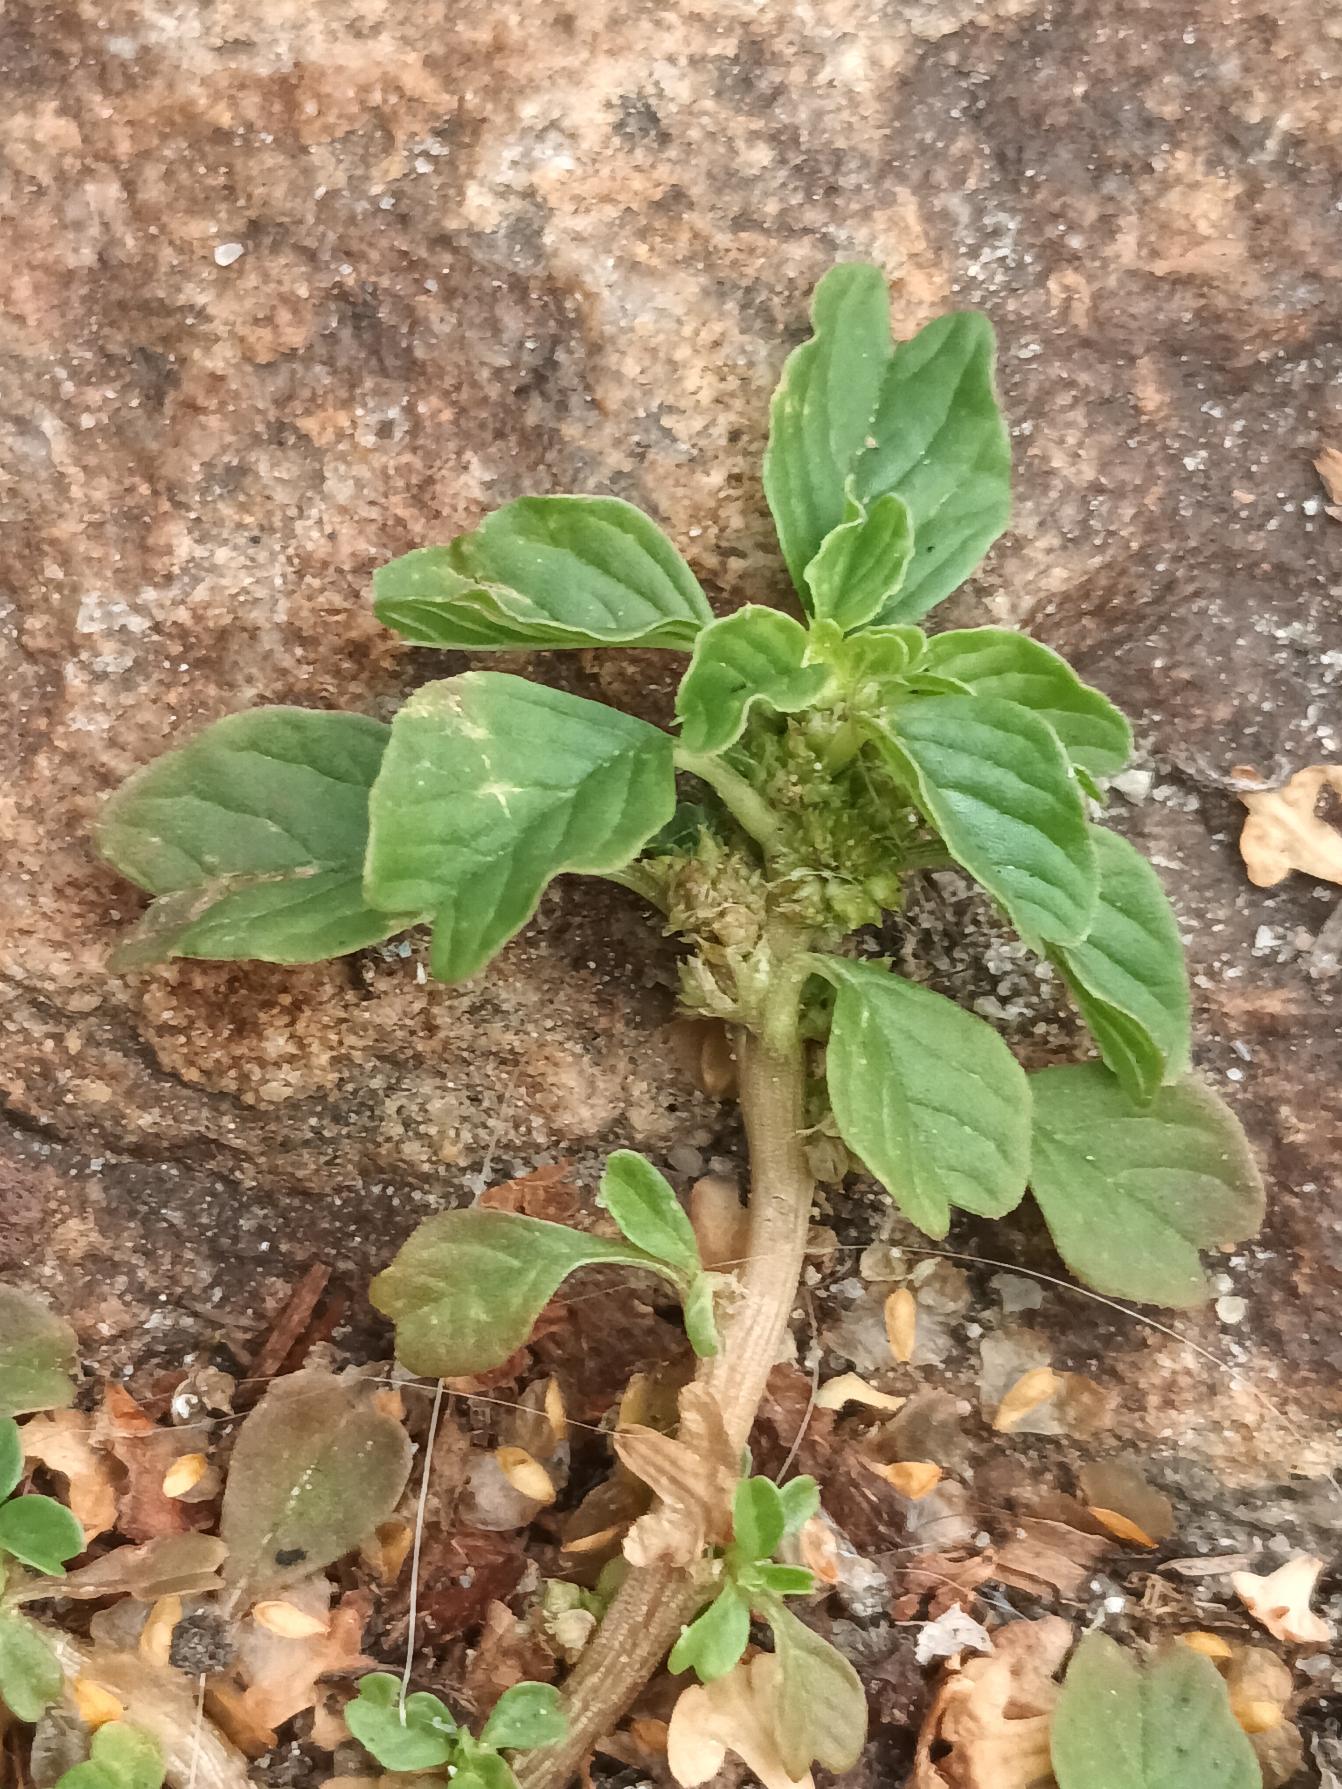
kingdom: Plantae
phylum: Tracheophyta
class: Magnoliopsida
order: Caryophyllales
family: Amaranthaceae
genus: Amaranthus
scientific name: Amaranthus blitum
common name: Plet-amarant
